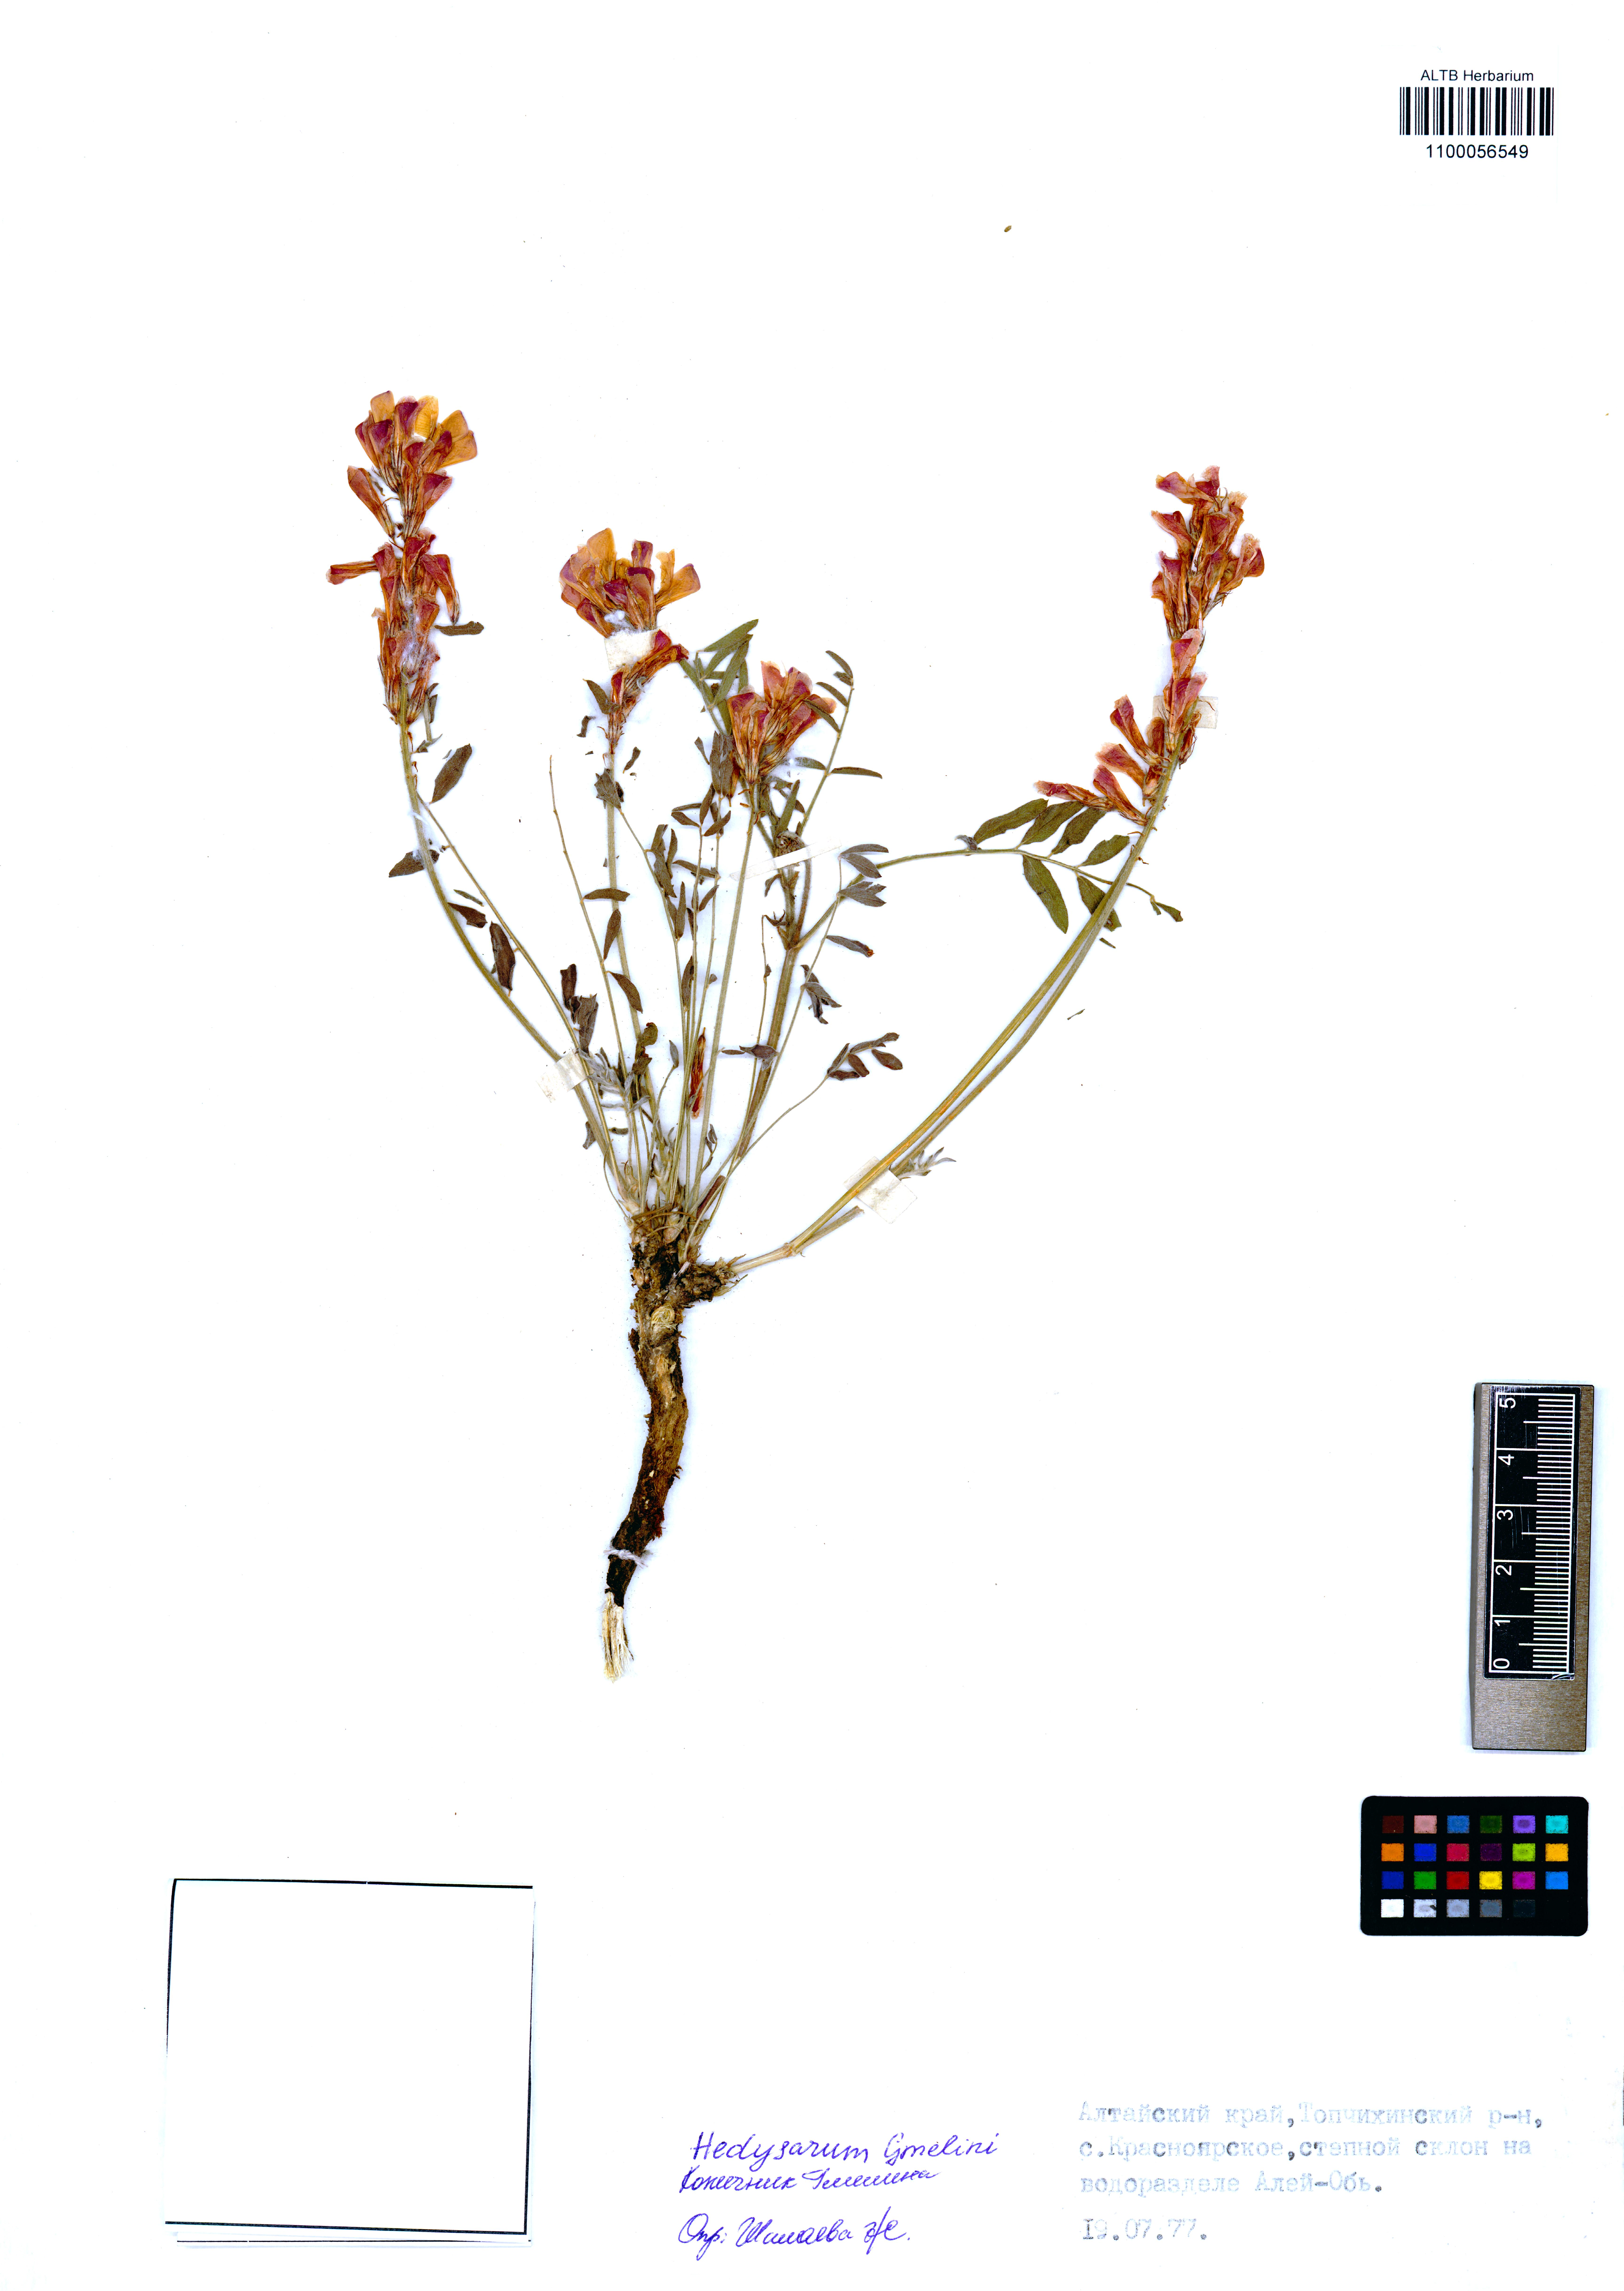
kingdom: Plantae
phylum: Tracheophyta
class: Magnoliopsida
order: Fabales
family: Fabaceae
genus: Hedysarum
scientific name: Hedysarum gmelinii
